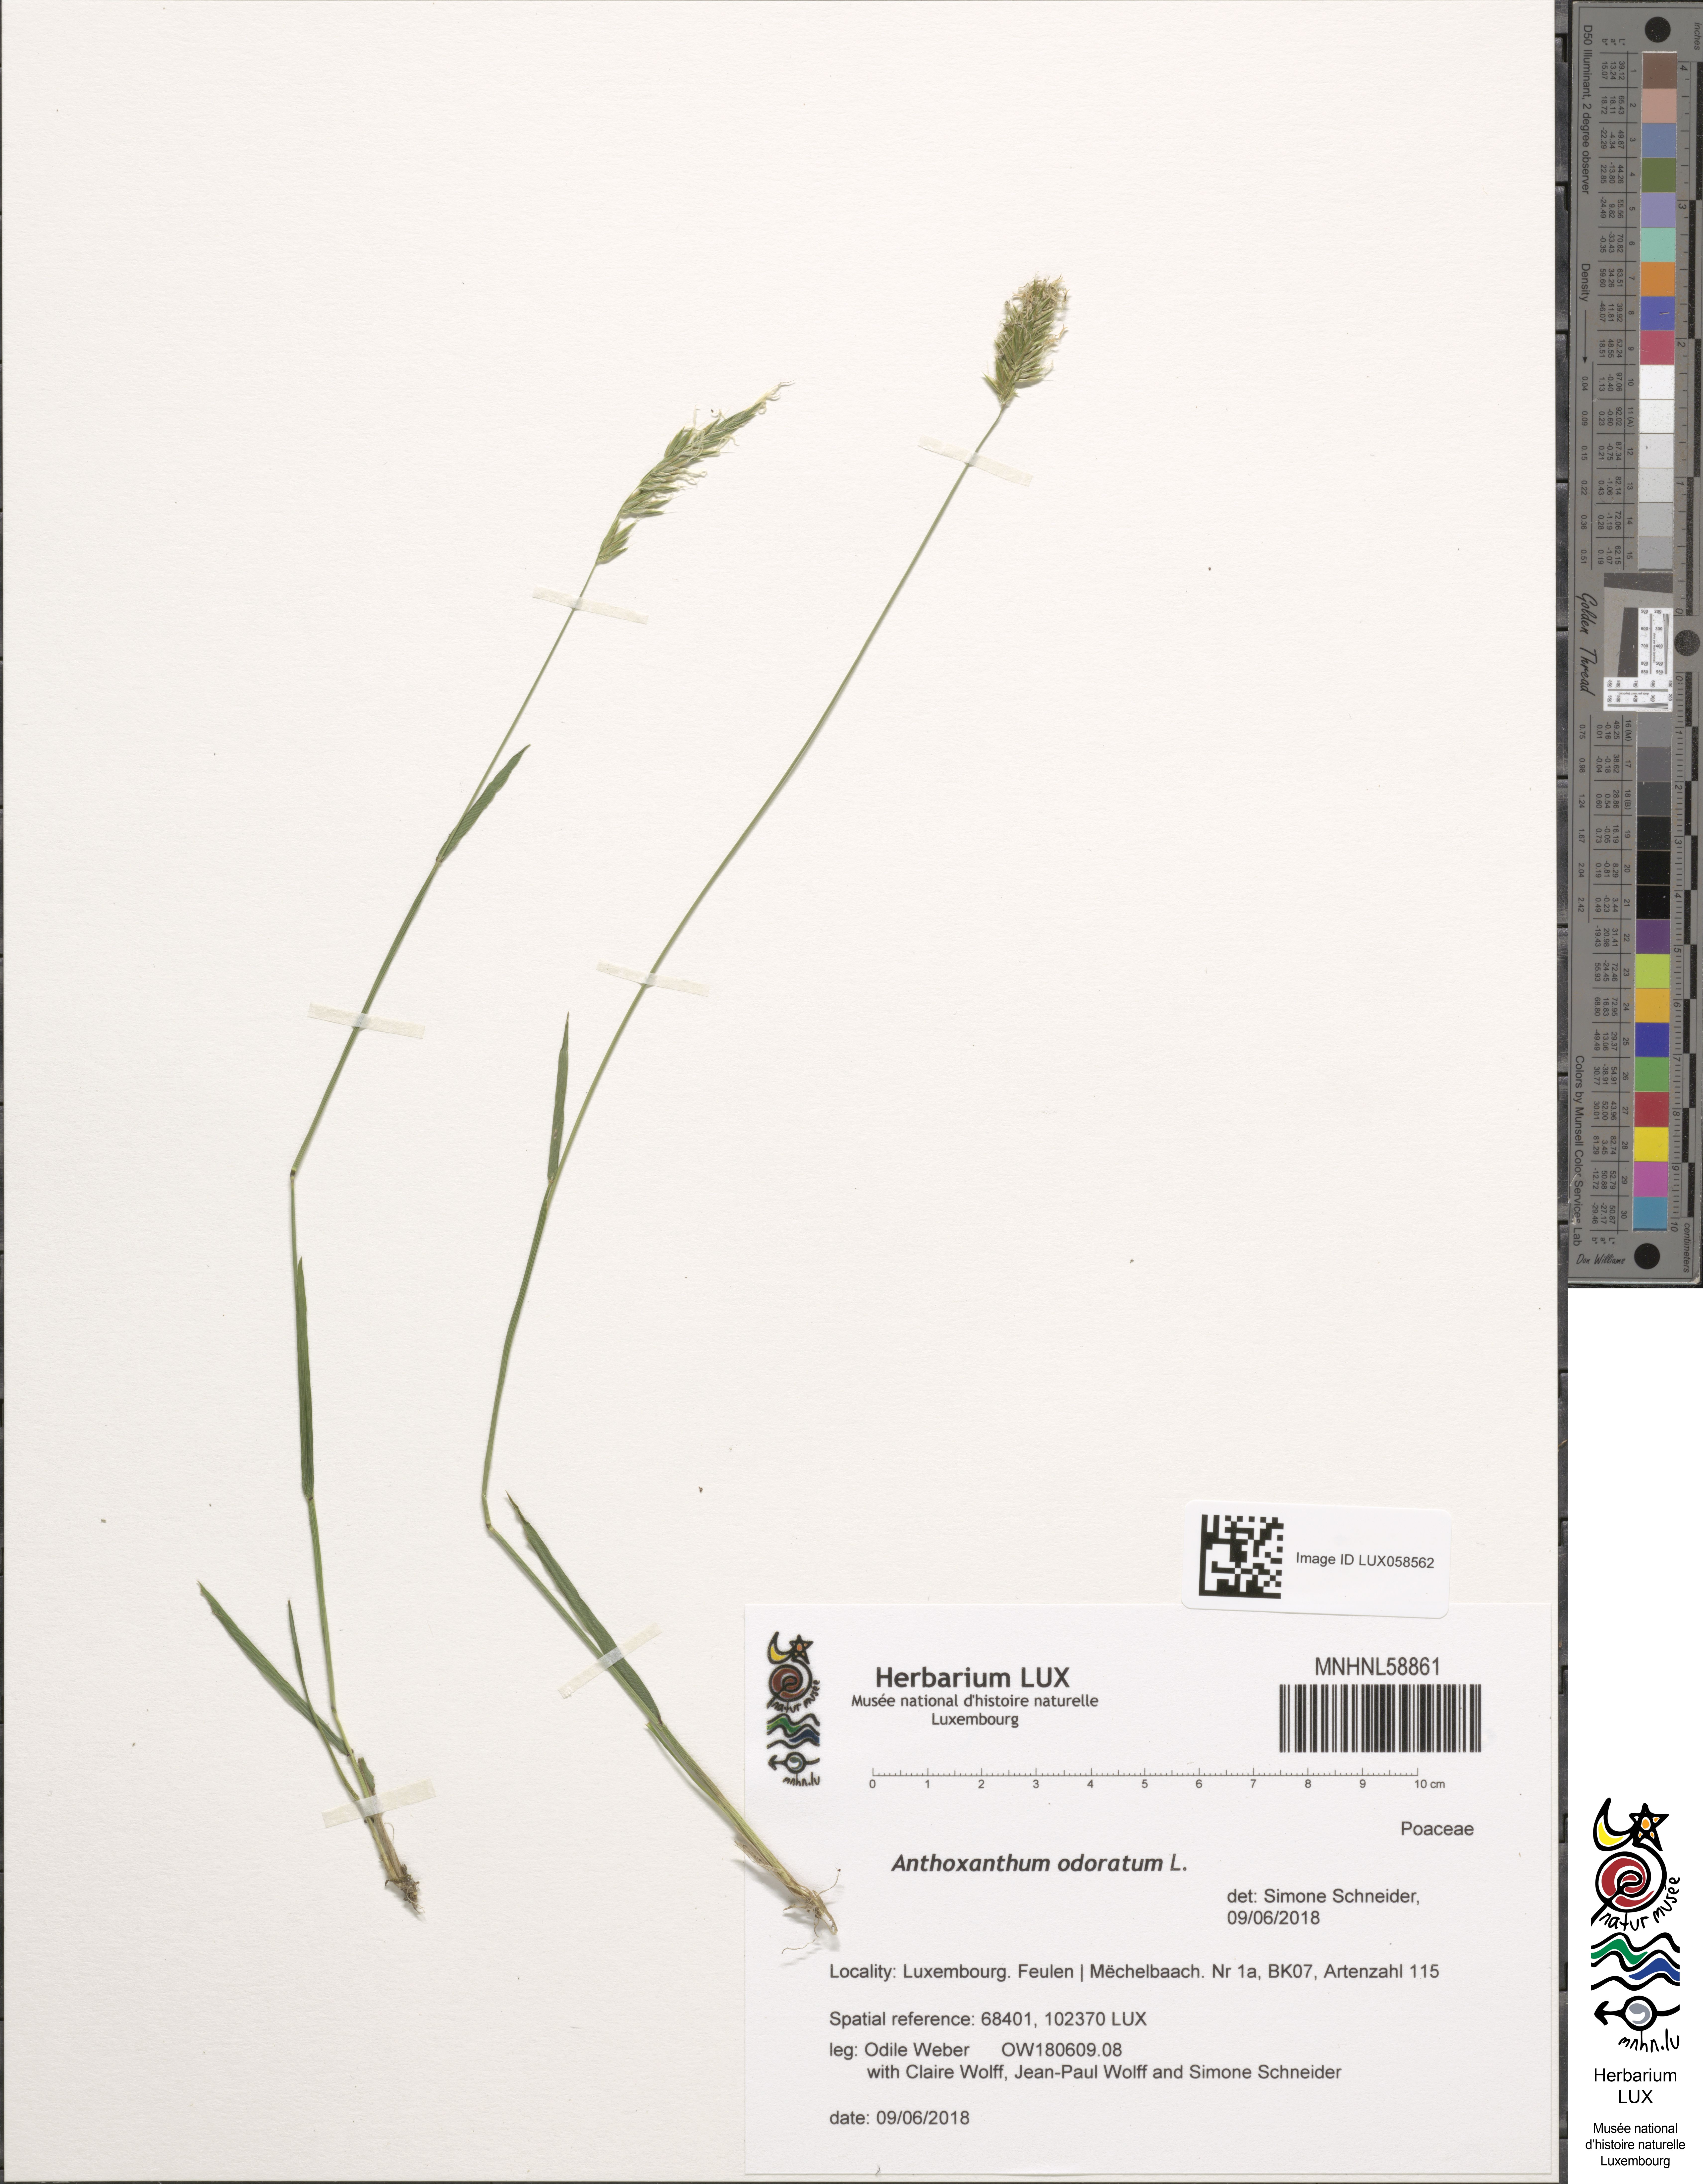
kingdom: Plantae
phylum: Tracheophyta
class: Liliopsida
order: Poales
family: Poaceae
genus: Anthoxanthum
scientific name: Anthoxanthum odoratum
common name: Sweet vernalgrass
